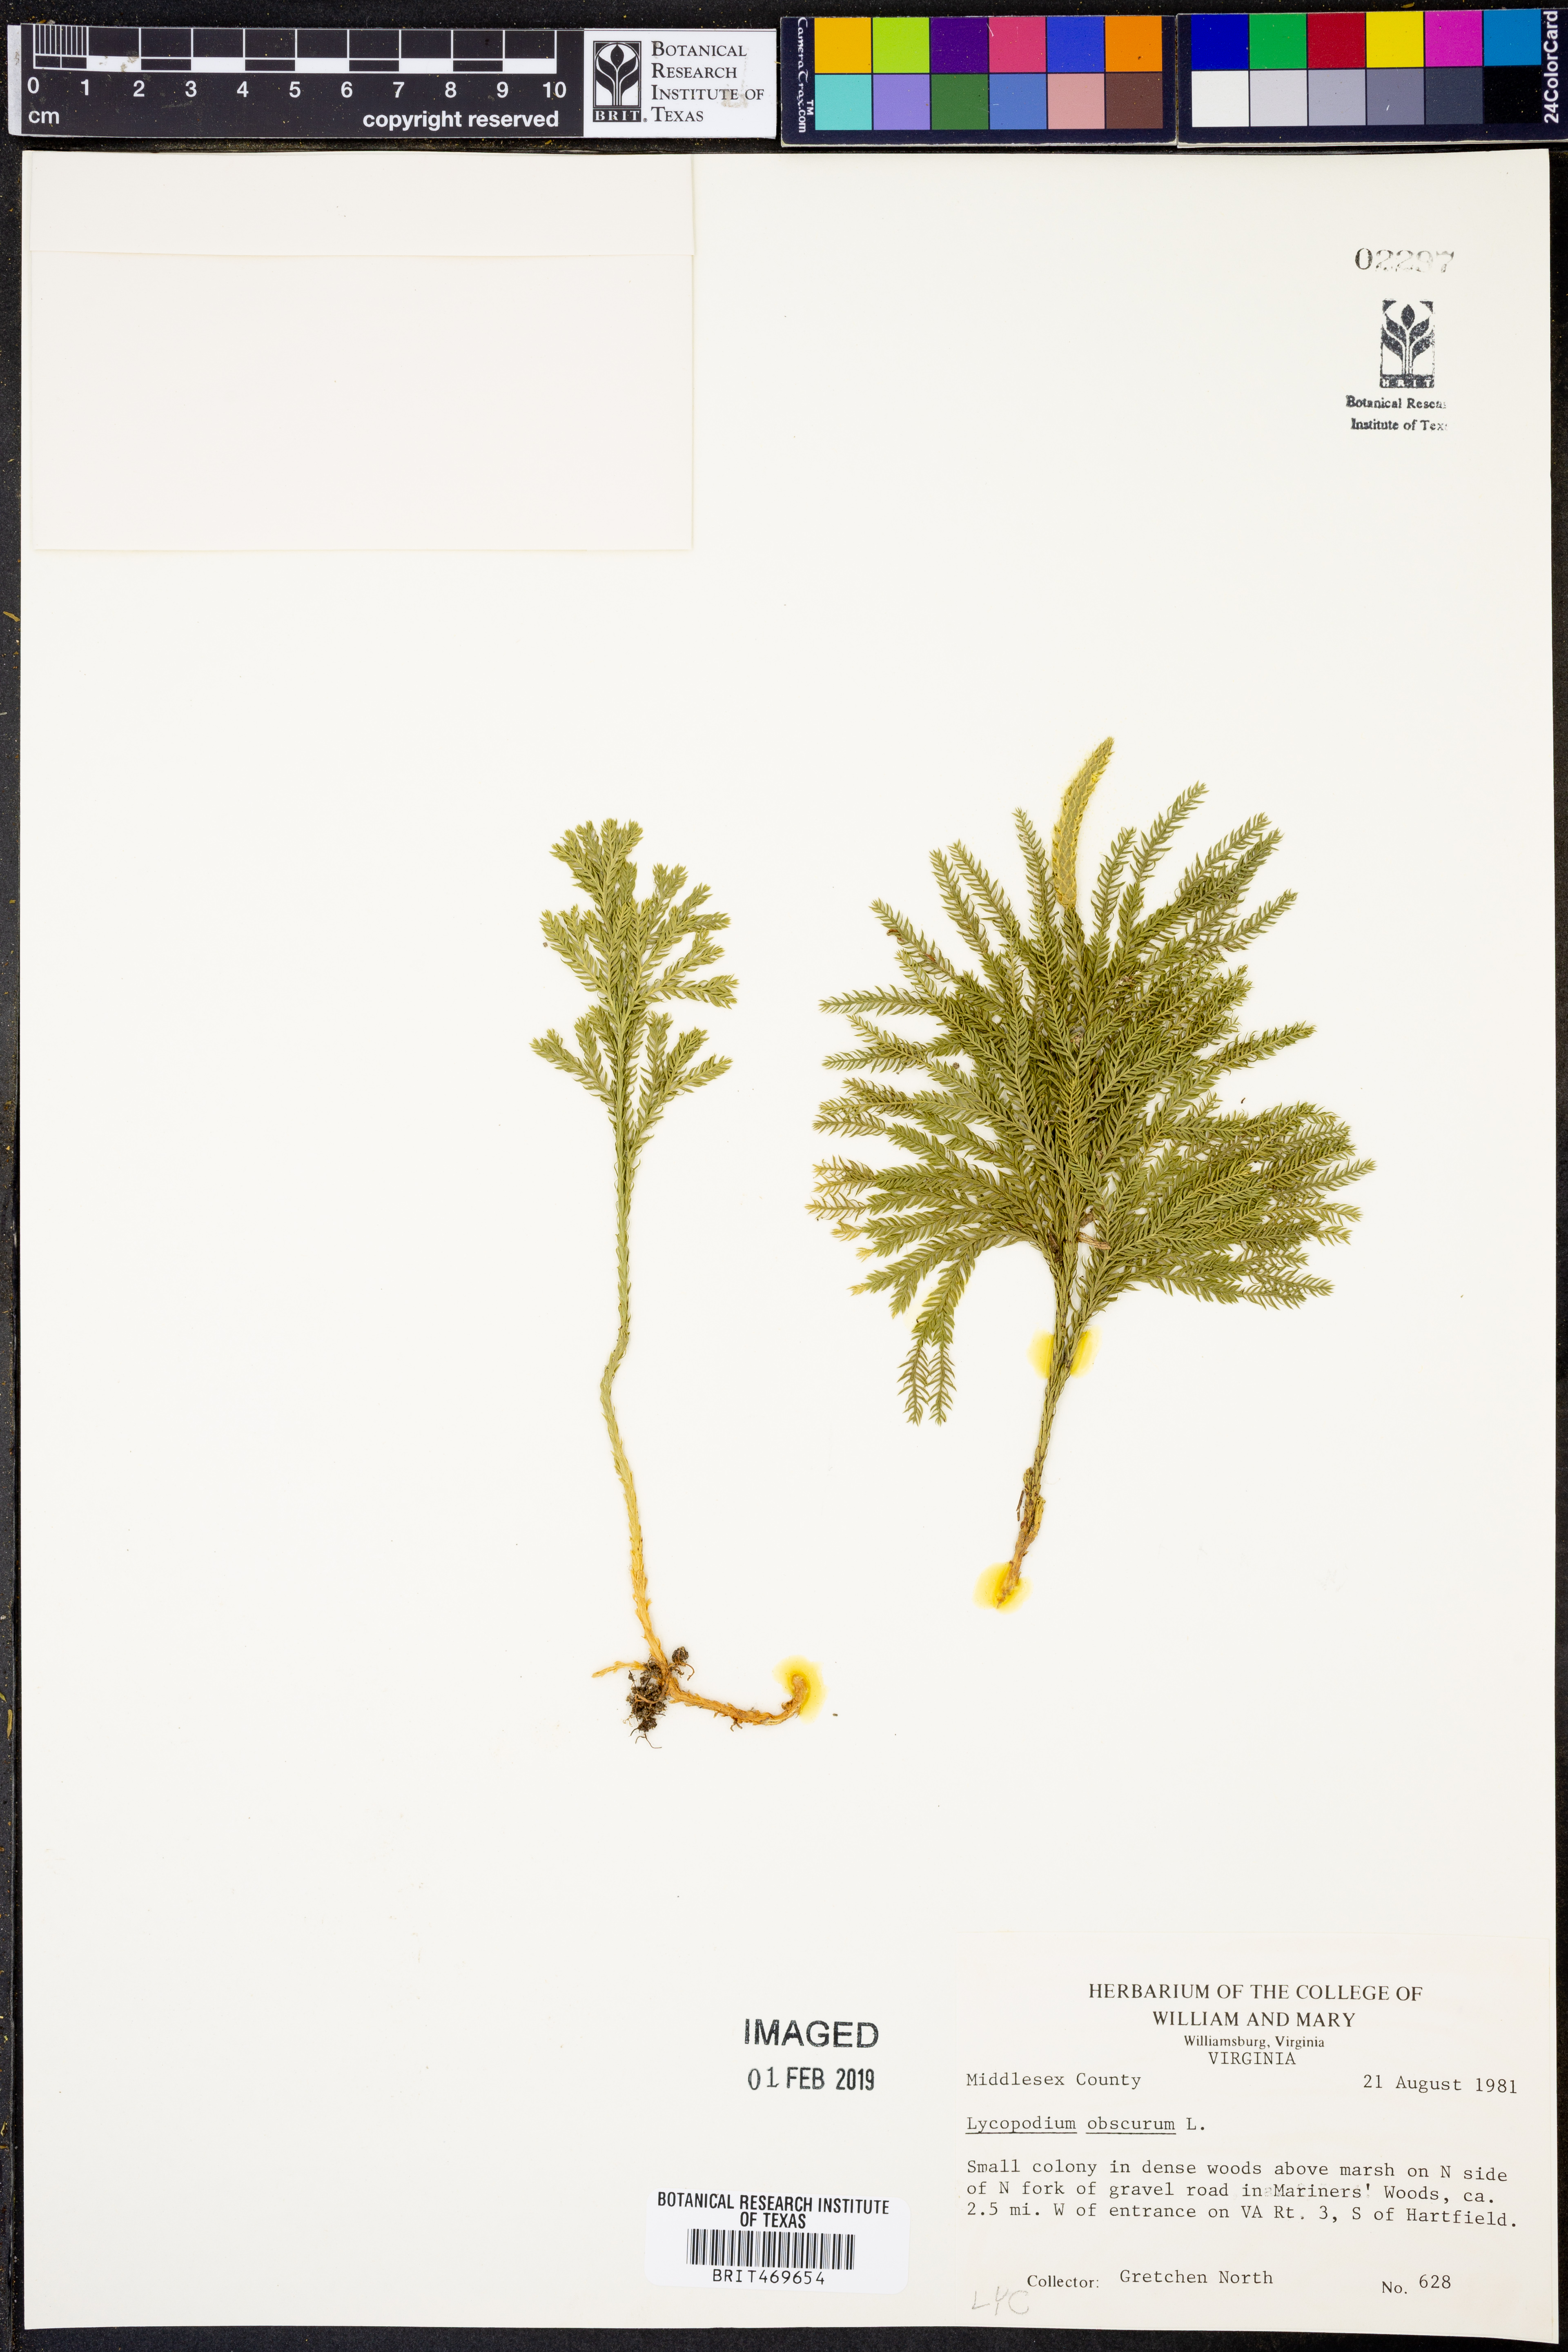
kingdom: Plantae
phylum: Tracheophyta
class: Lycopodiopsida
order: Lycopodiales
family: Lycopodiaceae
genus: Dendrolycopodium
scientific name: Dendrolycopodium obscurum
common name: Common ground-pine
